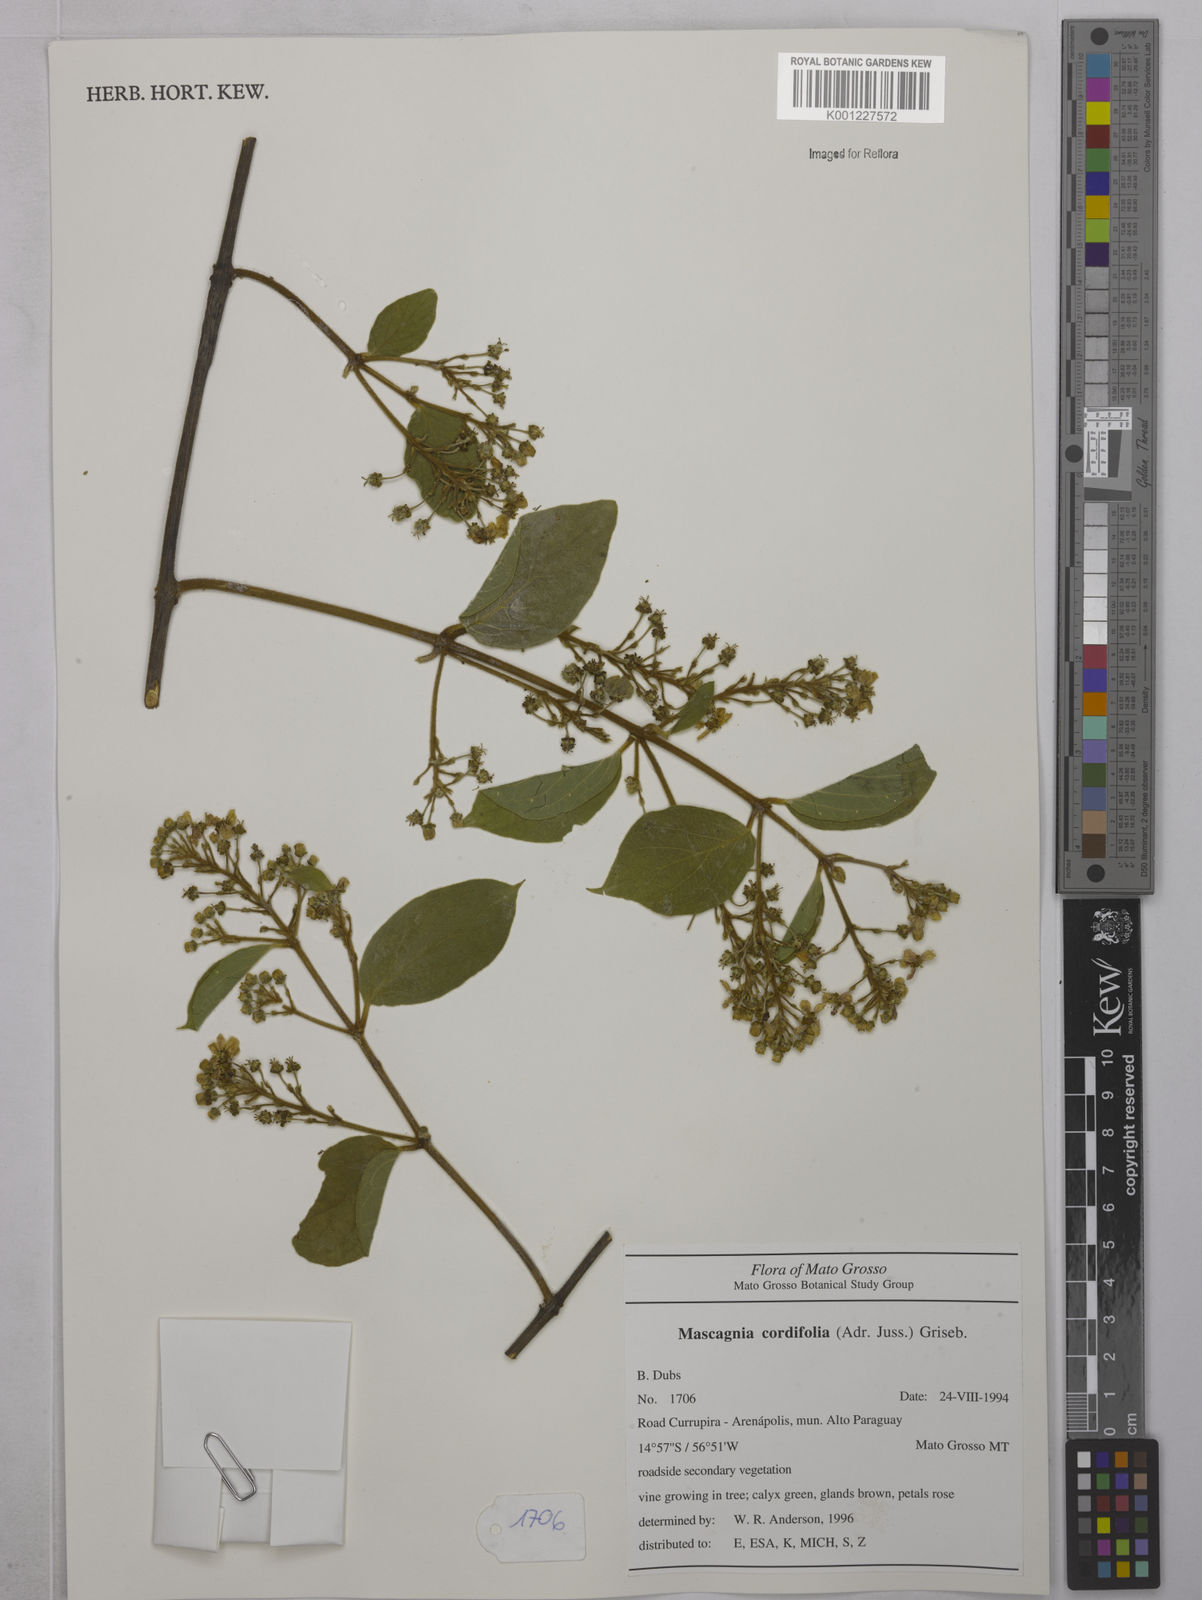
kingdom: Plantae
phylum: Tracheophyta
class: Magnoliopsida
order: Malpighiales
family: Malpighiaceae
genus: Mascagnia
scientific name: Mascagnia cordifolia
